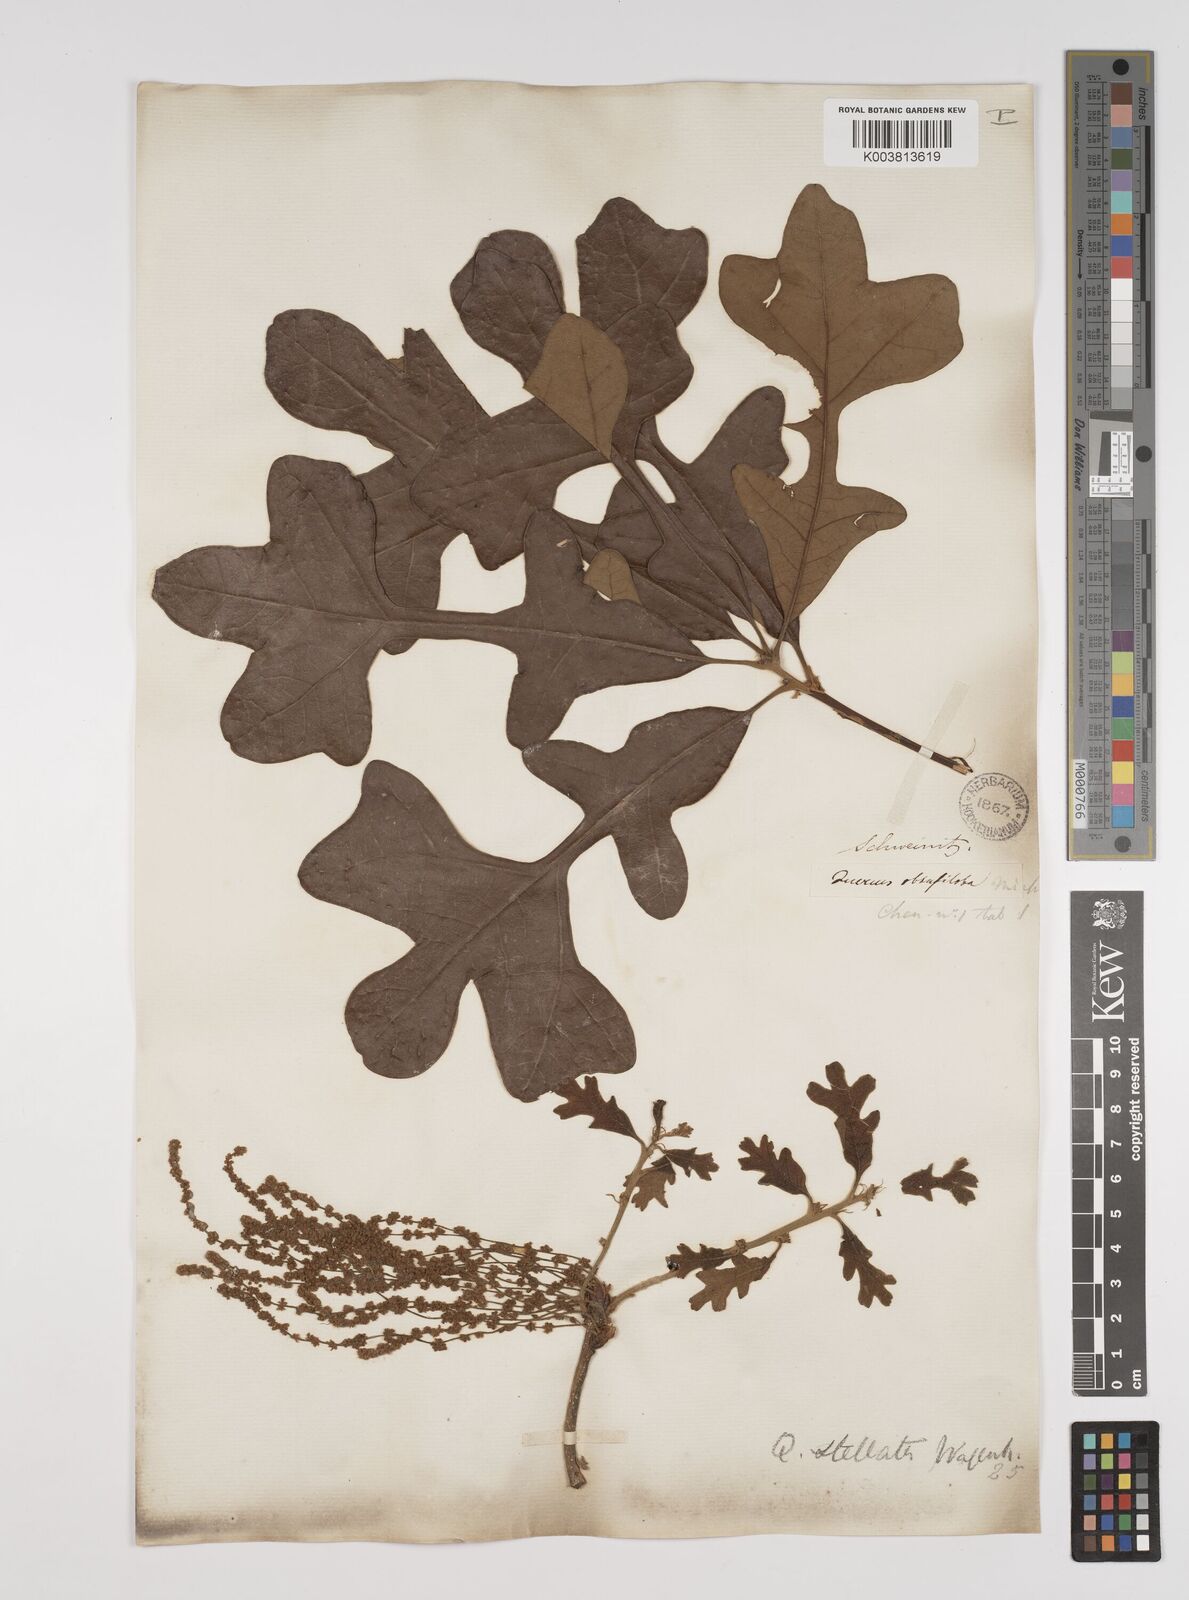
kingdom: Plantae
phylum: Tracheophyta
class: Magnoliopsida
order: Fagales
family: Fagaceae
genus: Quercus
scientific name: Quercus stellata
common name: Post oak
